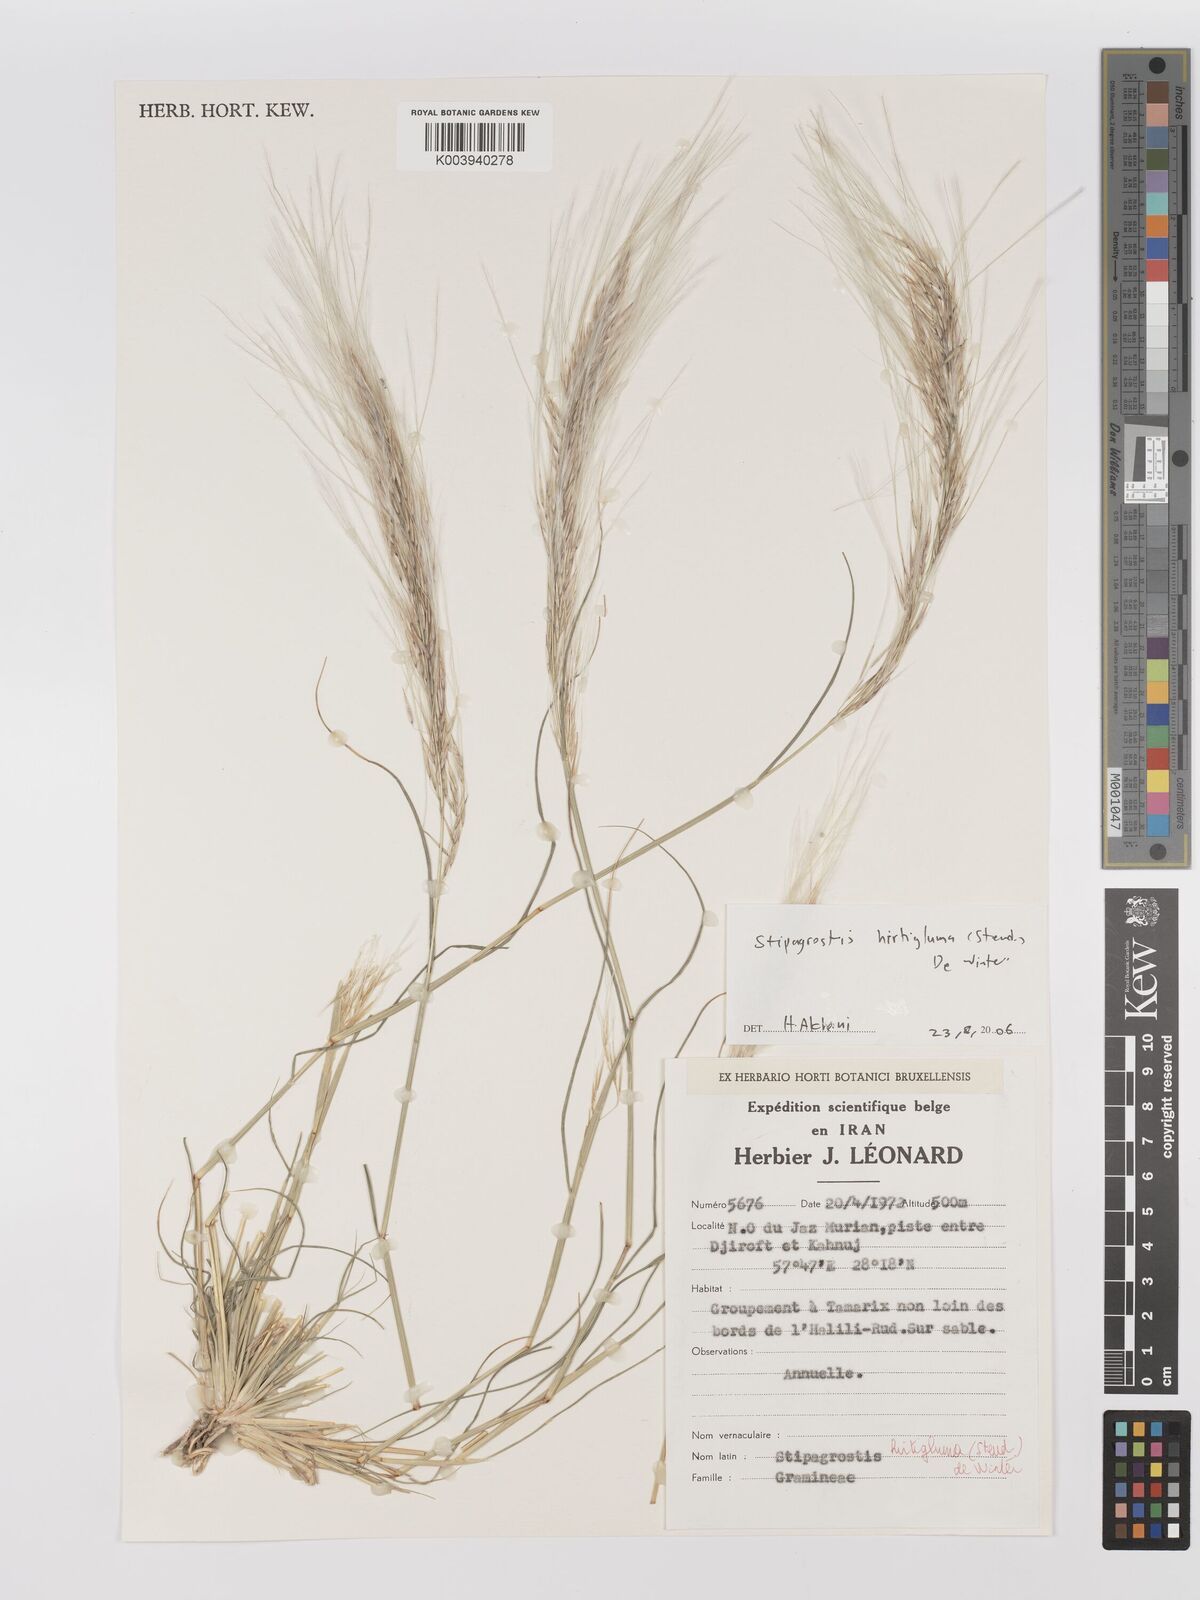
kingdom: Plantae
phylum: Tracheophyta
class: Liliopsida
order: Poales
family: Poaceae
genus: Stipagrostis
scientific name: Stipagrostis hirtigluma
